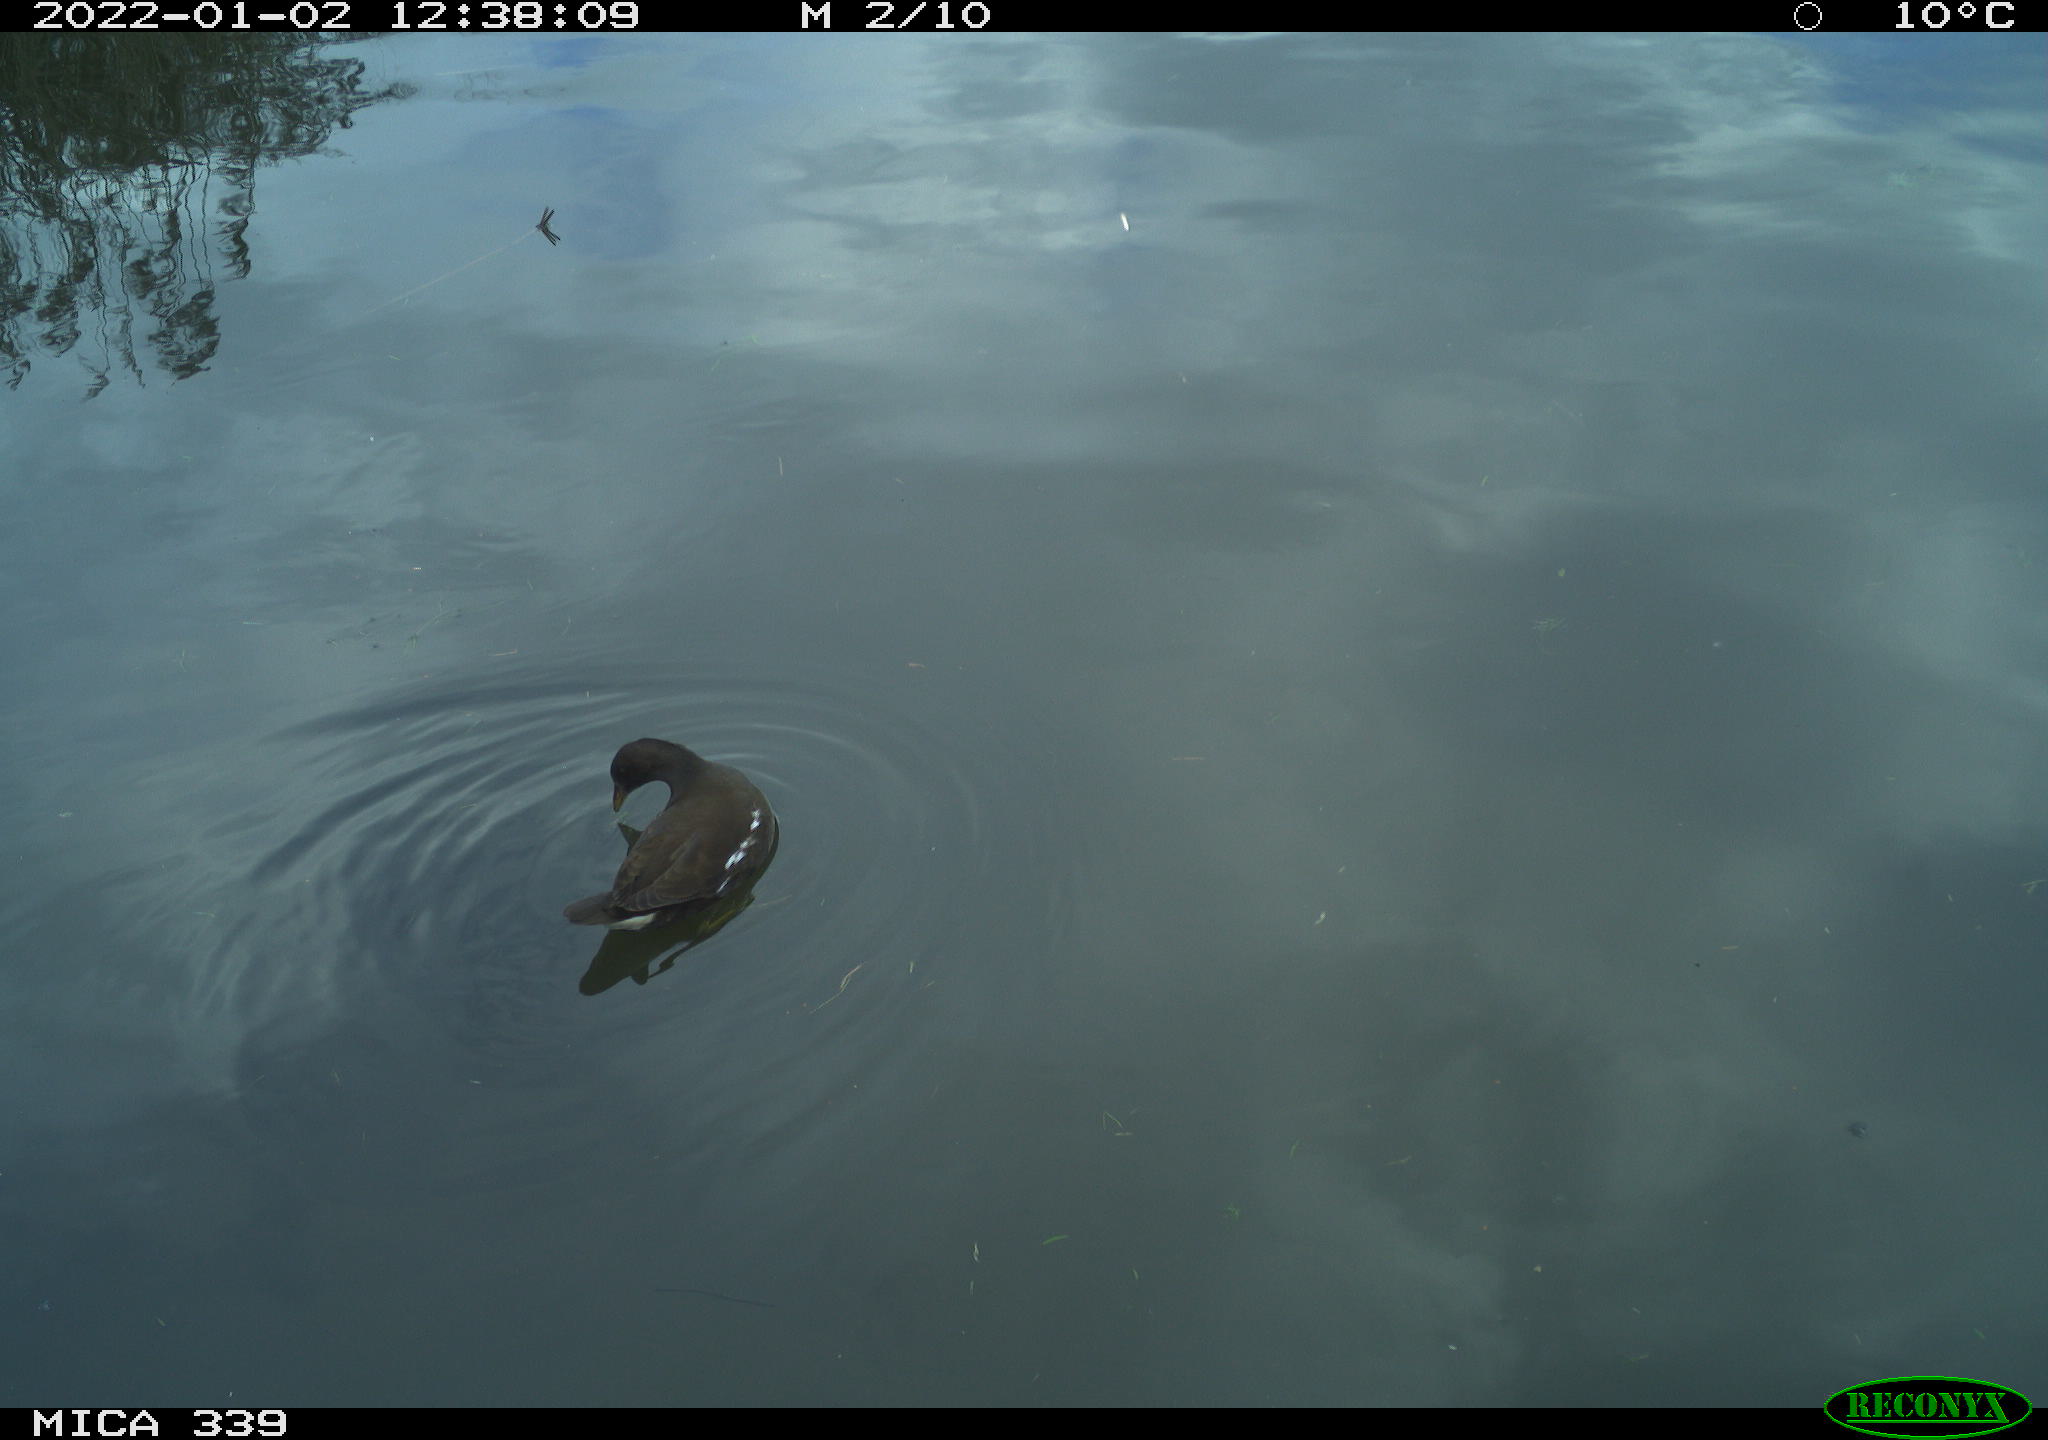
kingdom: Animalia
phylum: Chordata
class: Aves
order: Gruiformes
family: Rallidae
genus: Gallinula
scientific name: Gallinula chloropus
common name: Common moorhen
